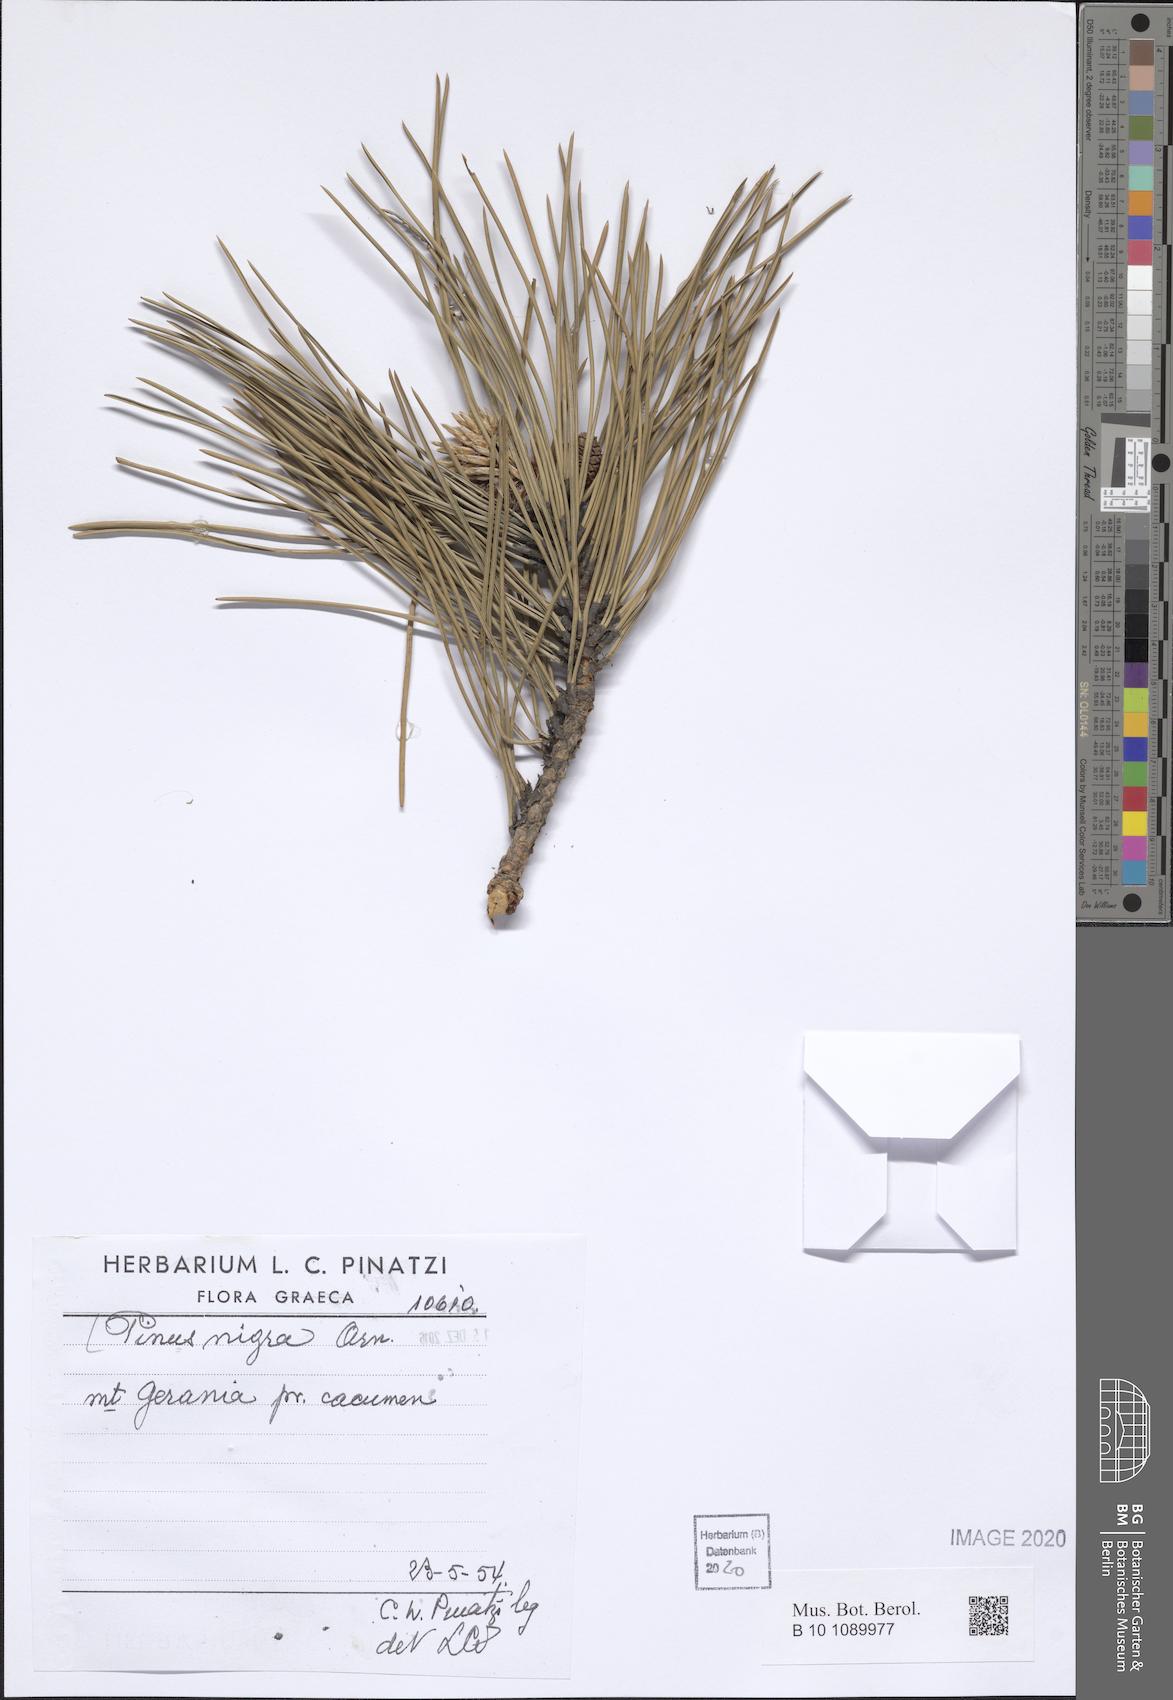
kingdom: Plantae
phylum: Tracheophyta
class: Pinopsida
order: Pinales
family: Pinaceae
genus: Pinus
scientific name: Pinus nigra
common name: Austrian pine
